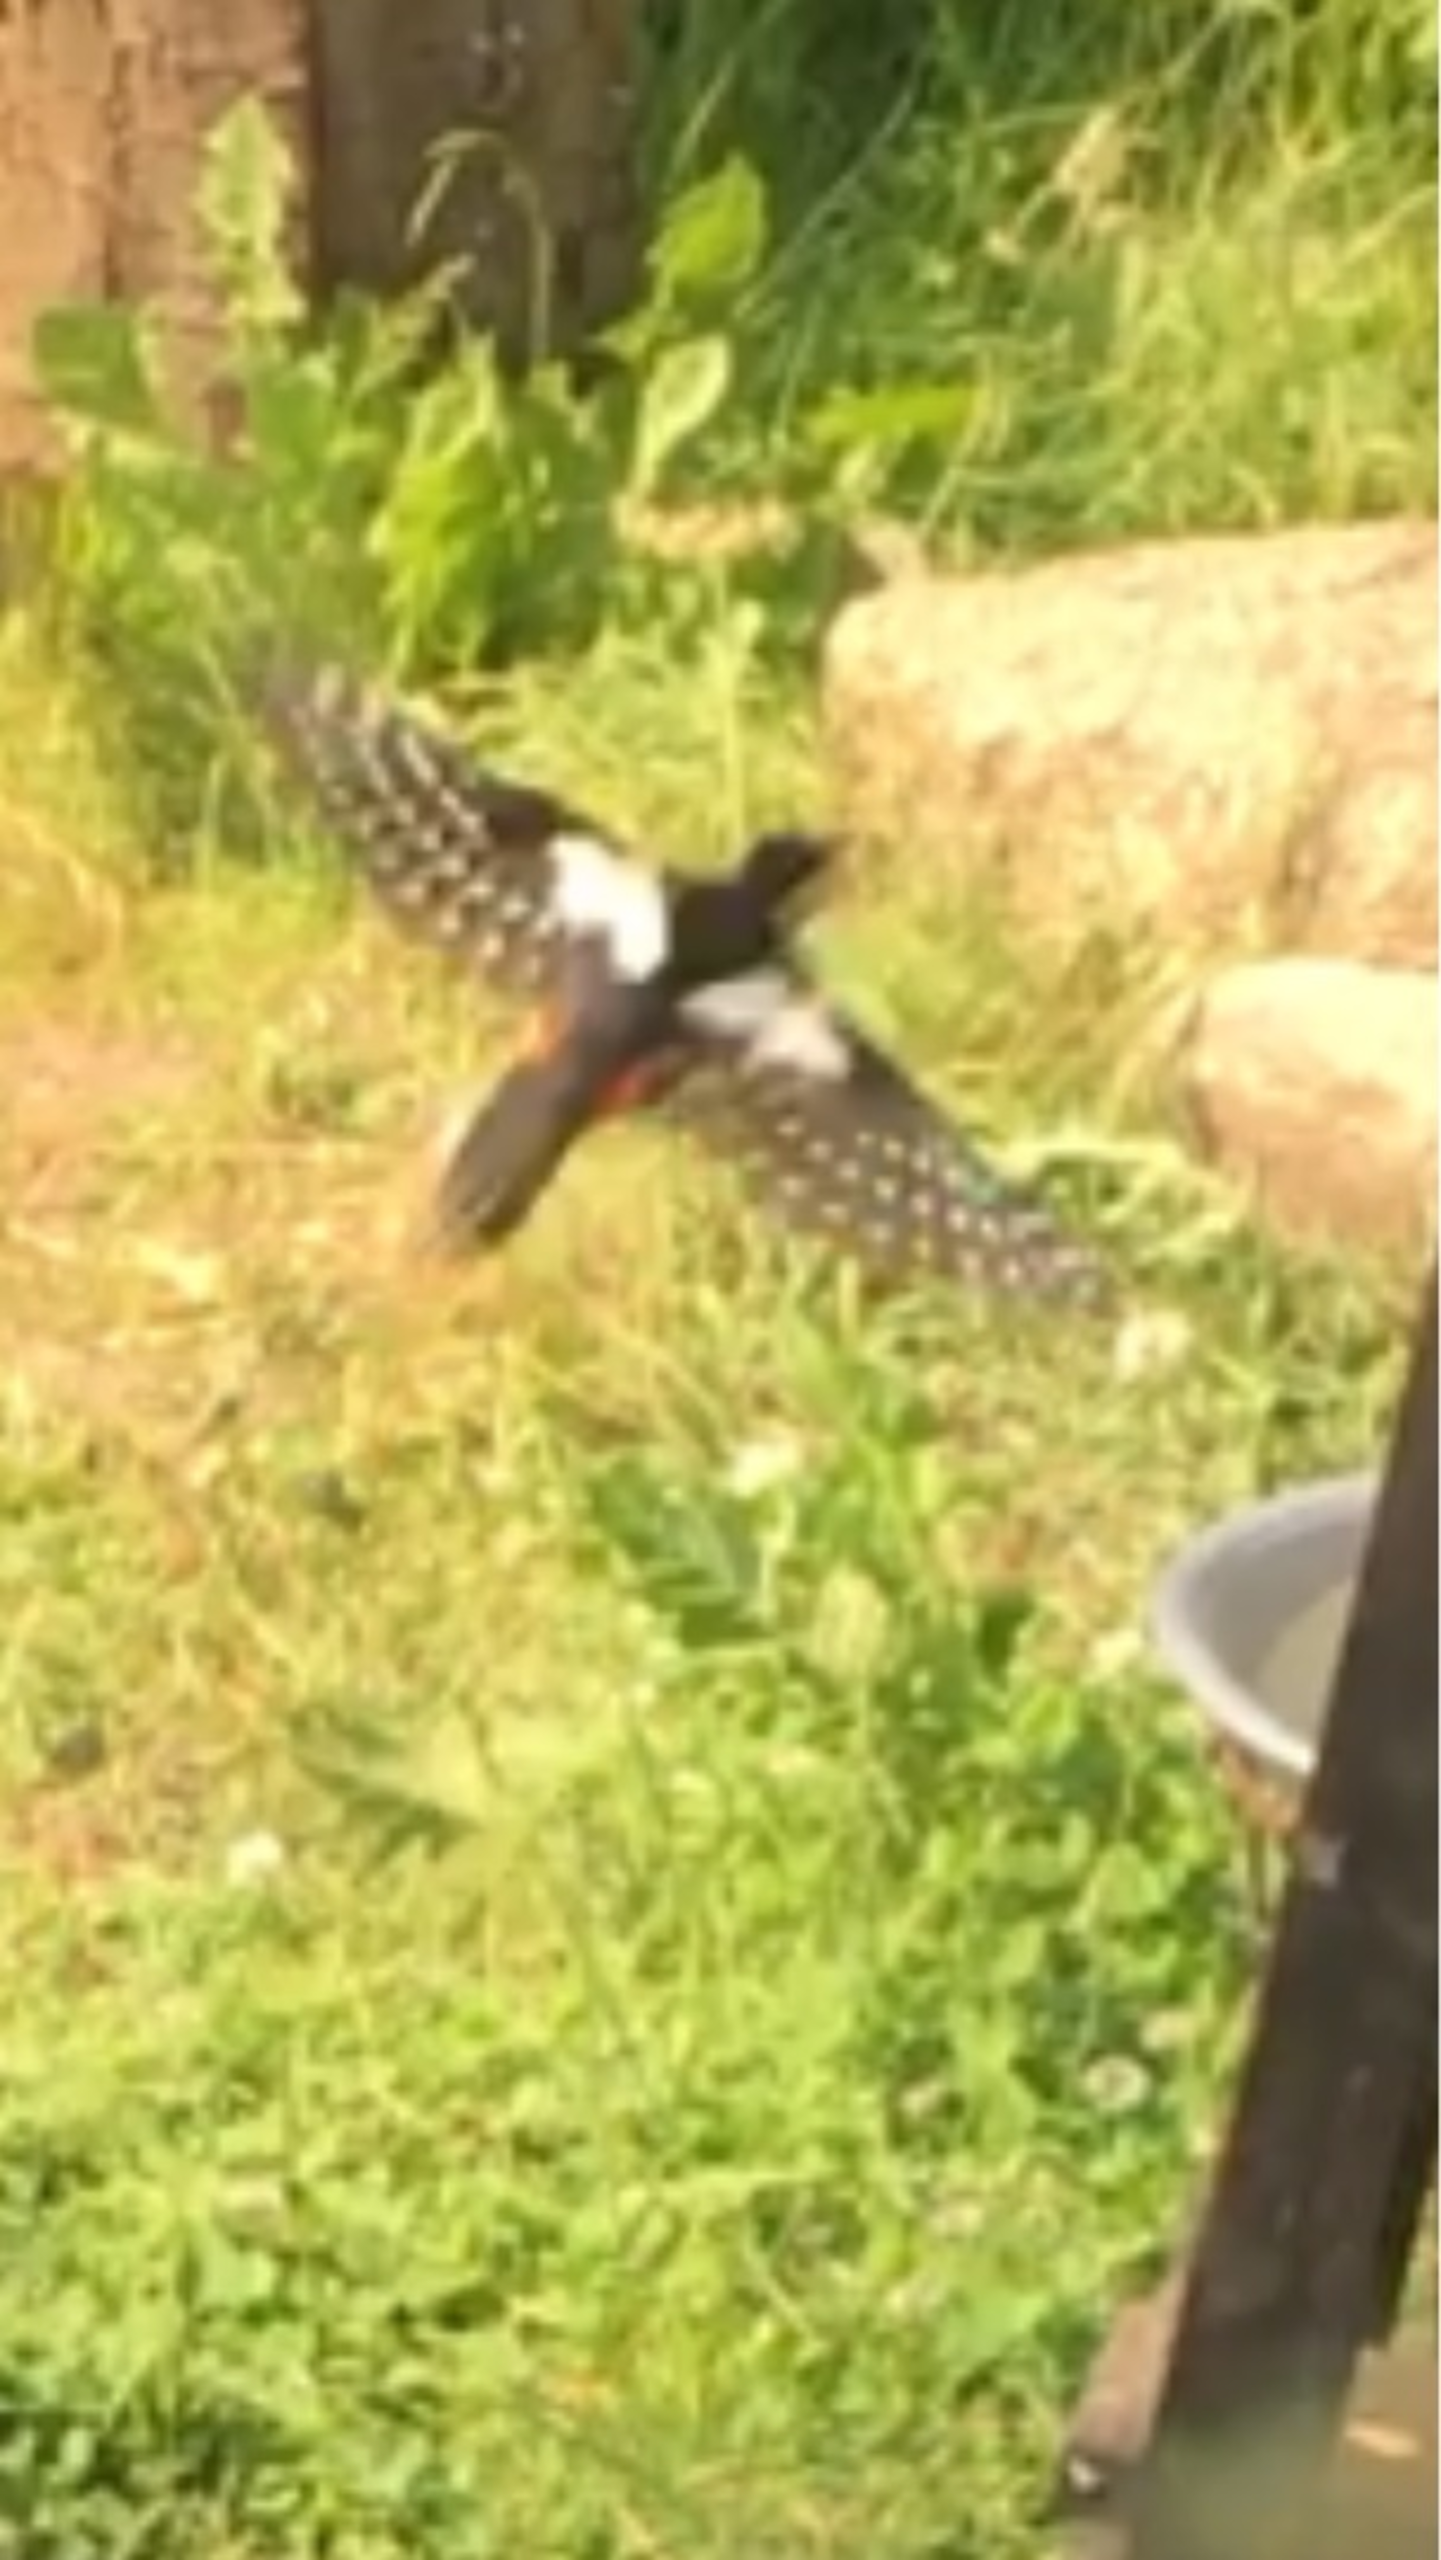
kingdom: Animalia
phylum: Chordata
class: Aves
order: Piciformes
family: Picidae
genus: Dendrocopos
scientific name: Dendrocopos major
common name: Stor flagspætte
